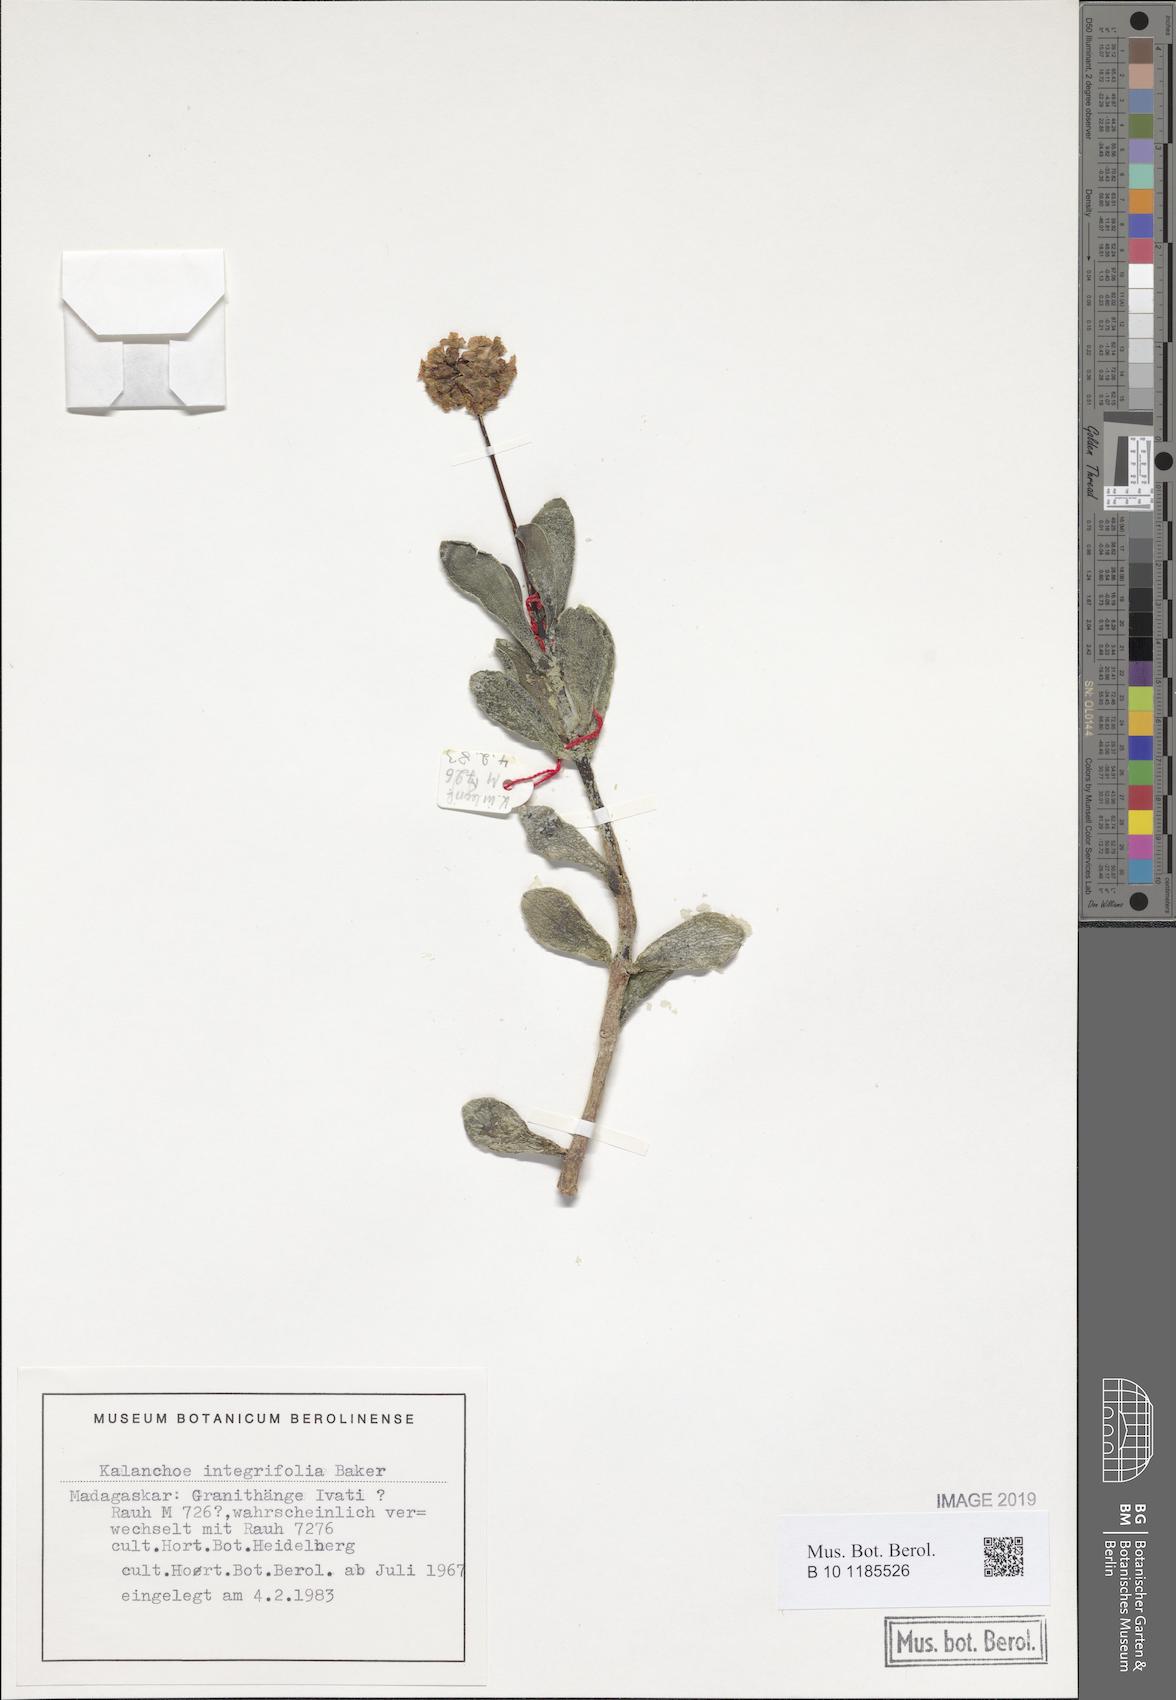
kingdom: Plantae
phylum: Tracheophyta
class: Magnoliopsida
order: Saxifragales
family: Crassulaceae
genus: Kalanchoe
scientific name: Kalanchoe integrifolia
